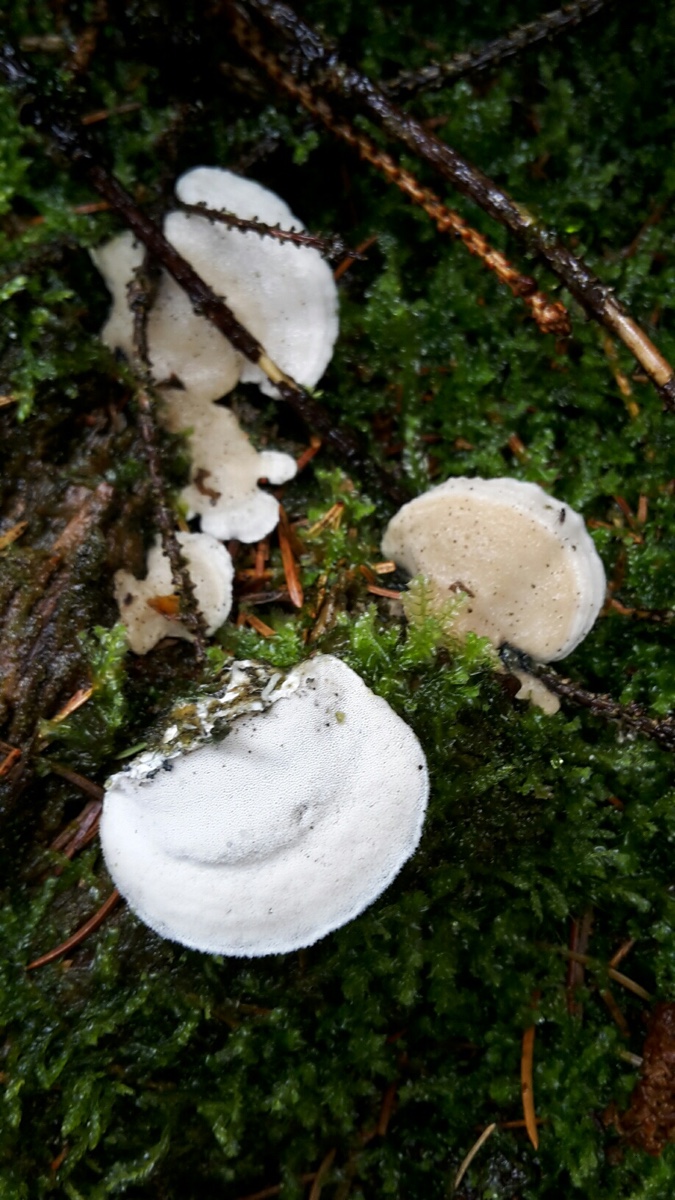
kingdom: Fungi
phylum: Basidiomycota
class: Agaricomycetes
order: Polyporales
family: Dacryobolaceae
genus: Postia
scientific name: Postia
